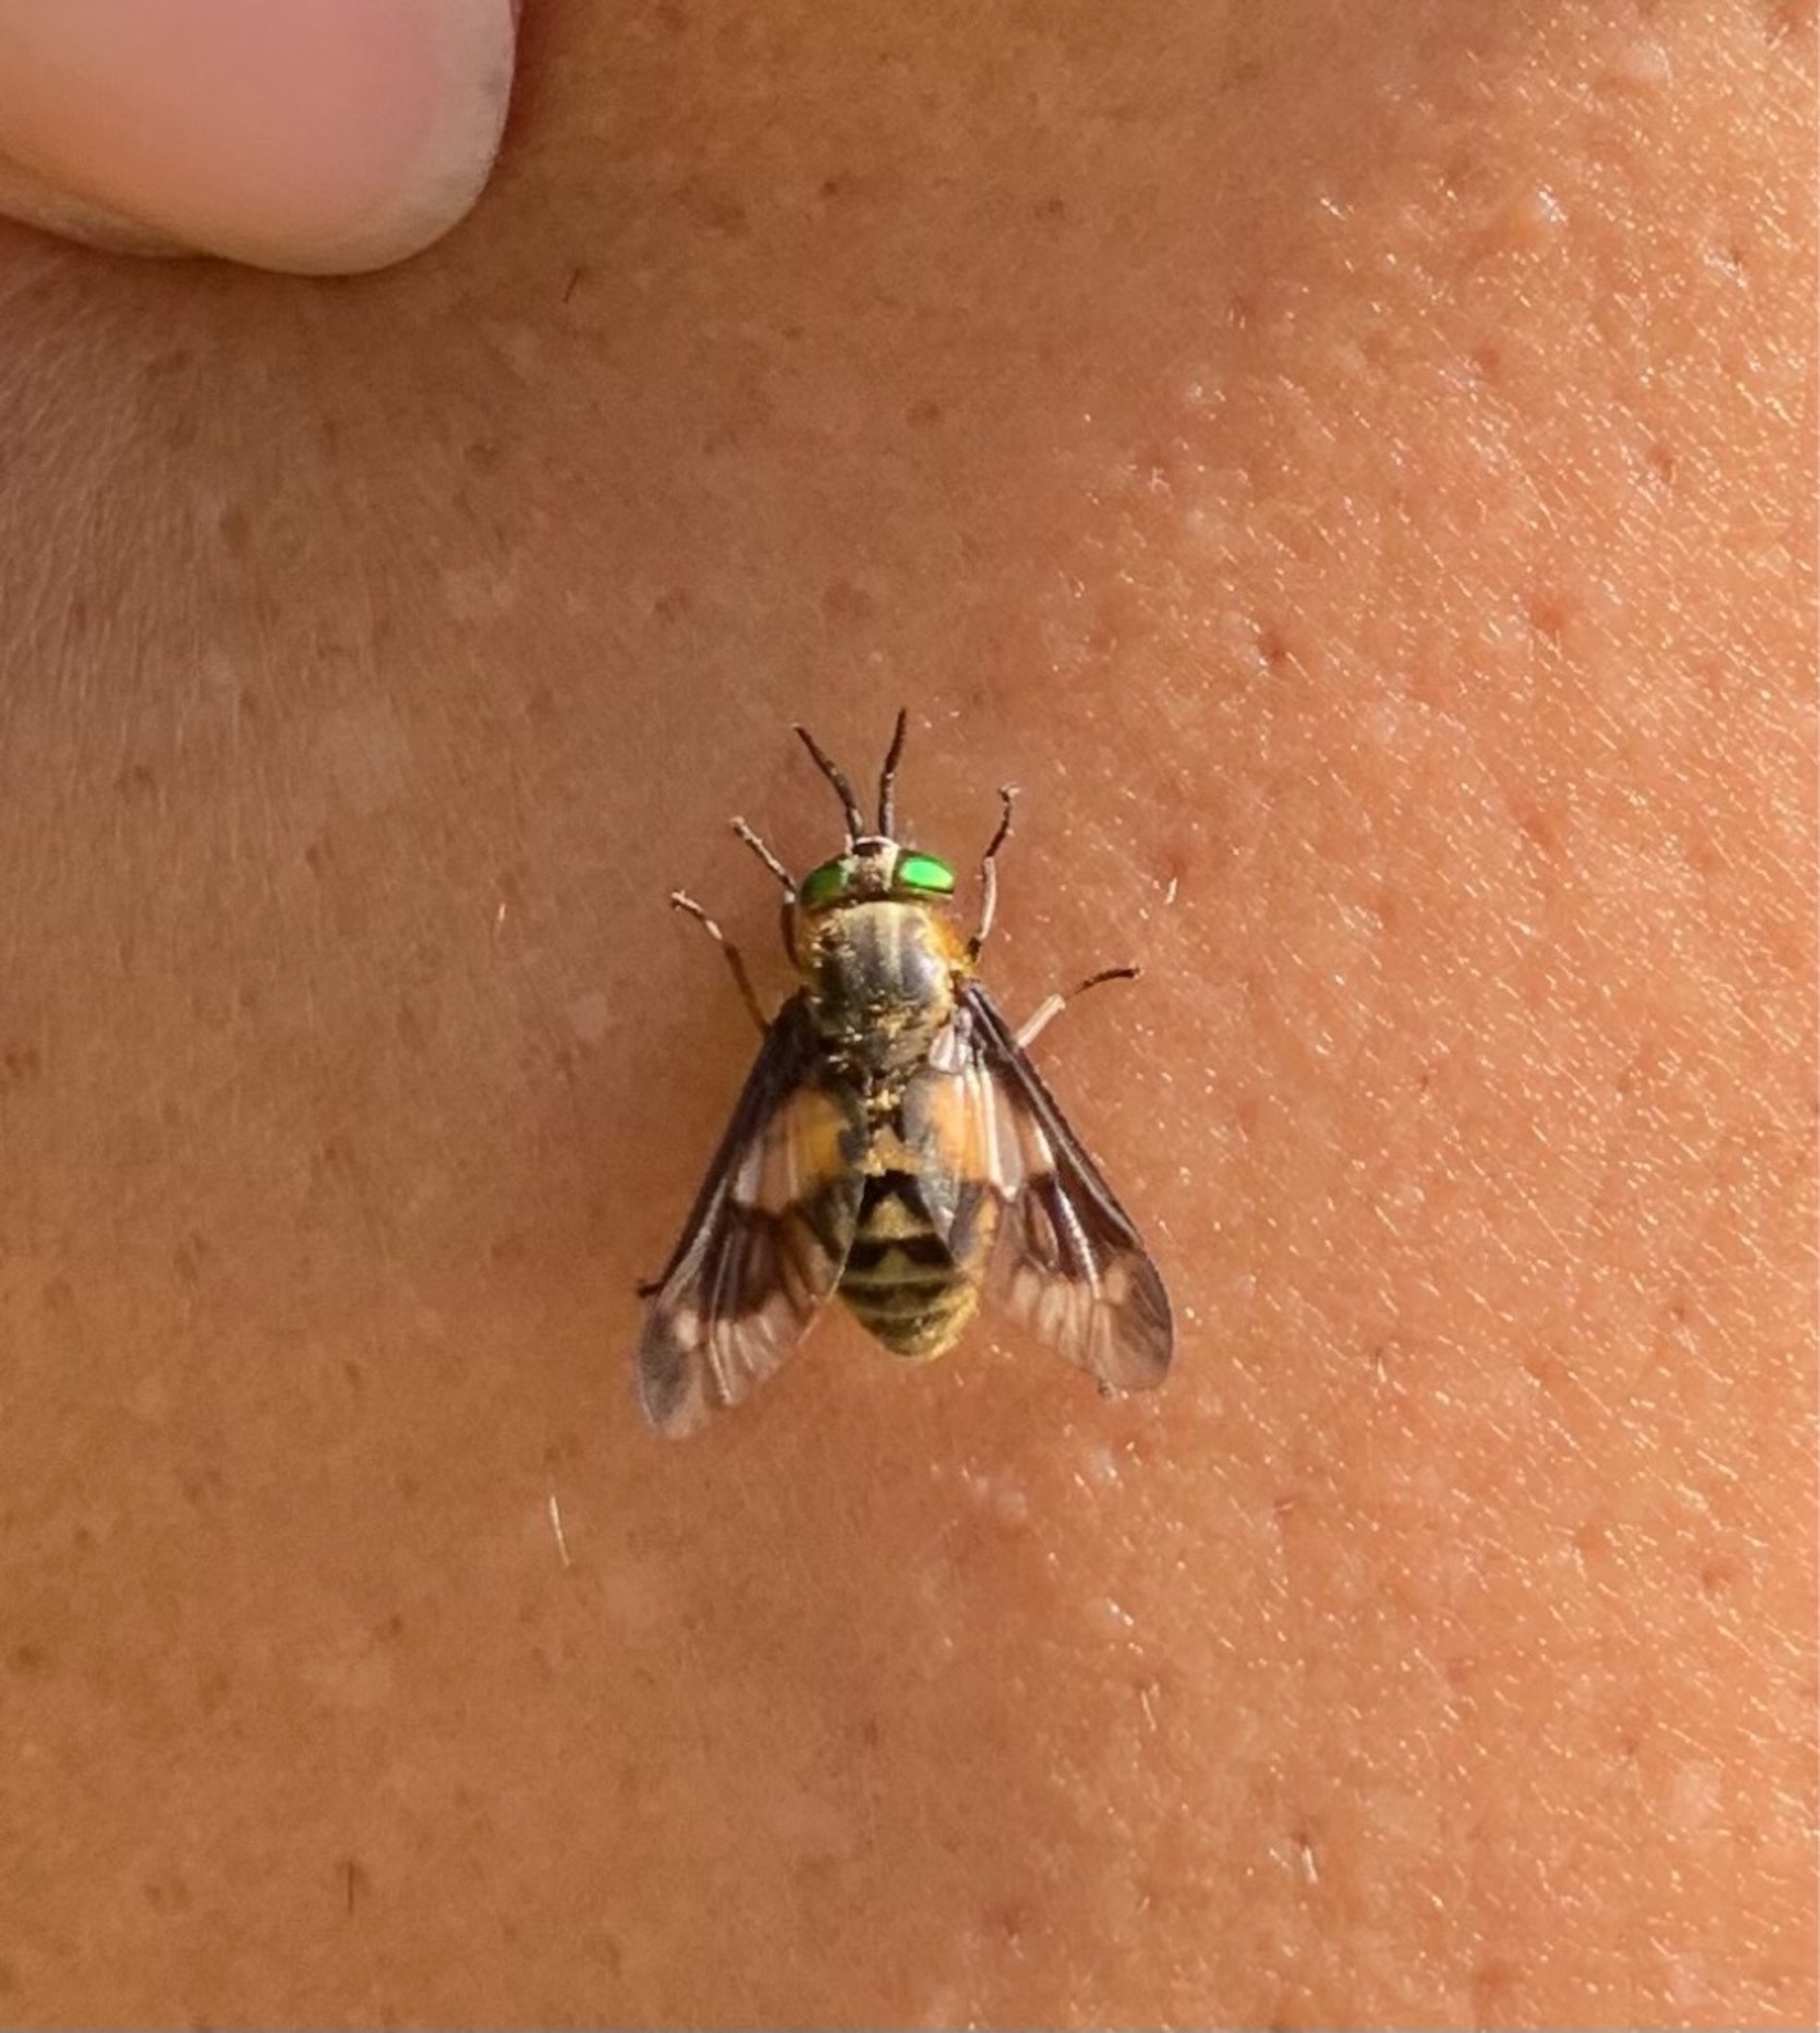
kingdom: Animalia
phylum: Arthropoda
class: Insecta
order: Diptera
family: Tabanidae
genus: Chrysops
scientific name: Chrysops relictus
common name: Guldklæg
